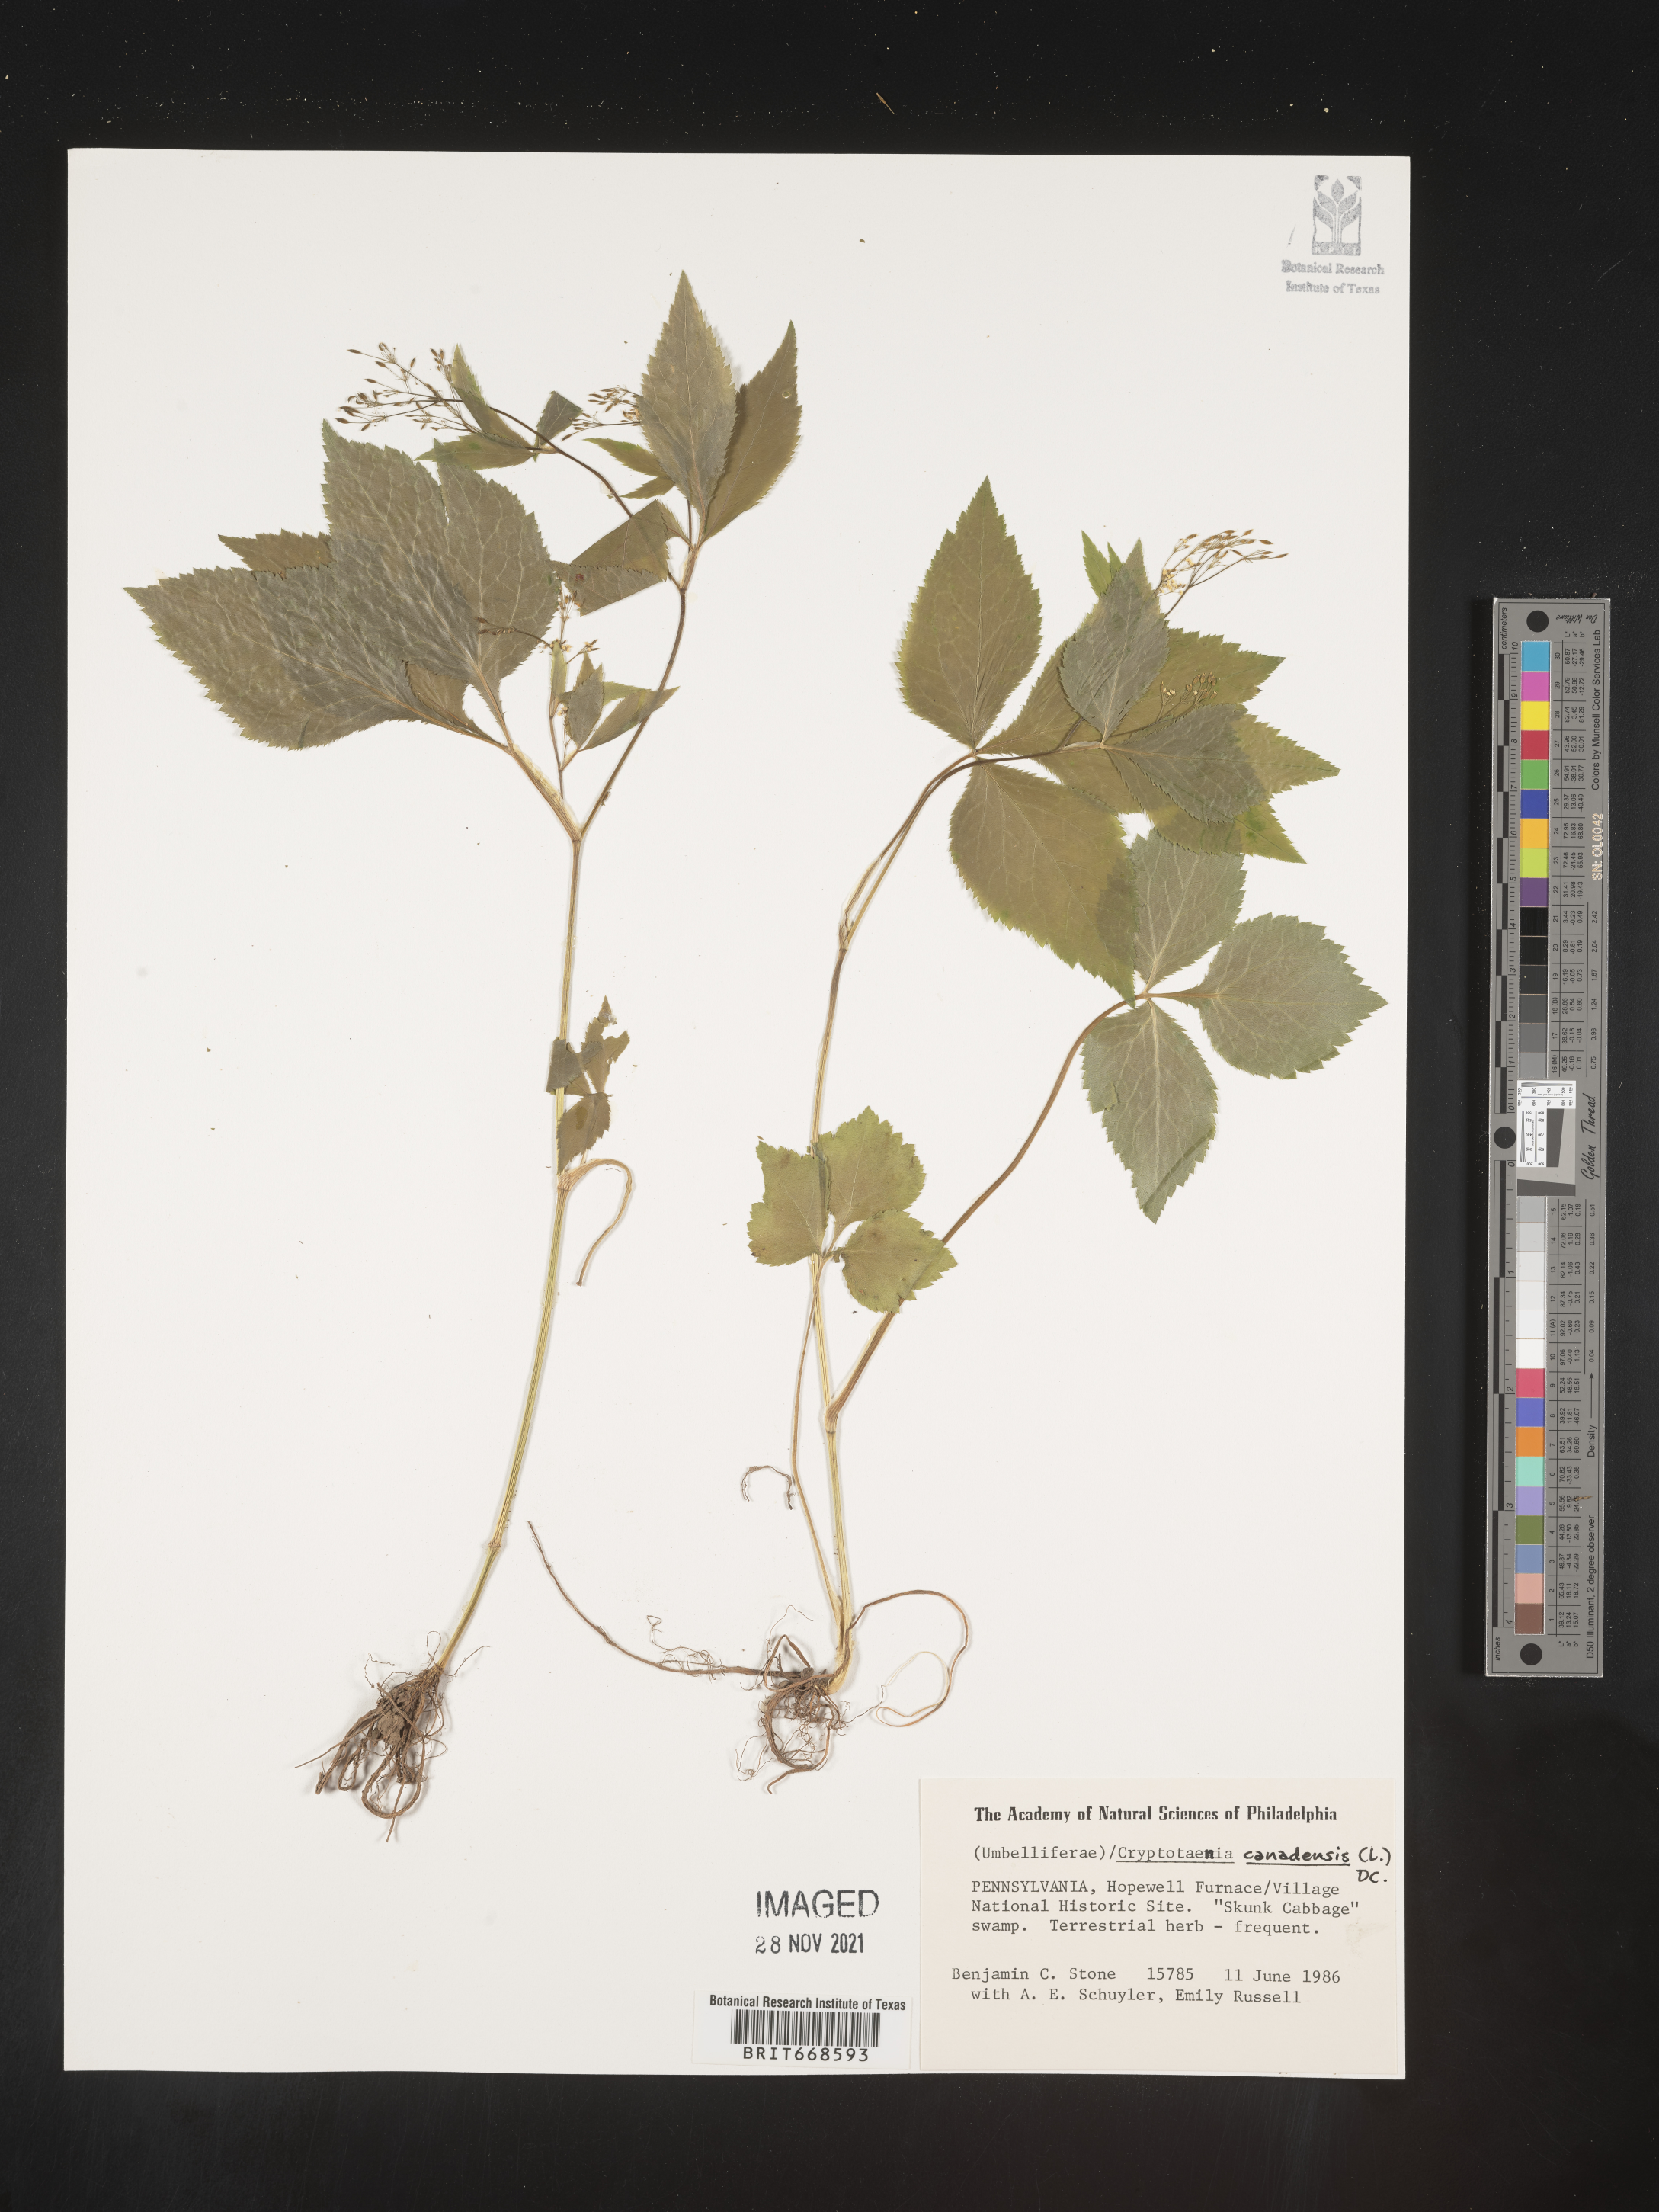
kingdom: Plantae
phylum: Tracheophyta
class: Magnoliopsida
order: Apiales
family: Apiaceae
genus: Cryptotaenia
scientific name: Cryptotaenia canadensis
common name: Honewort
